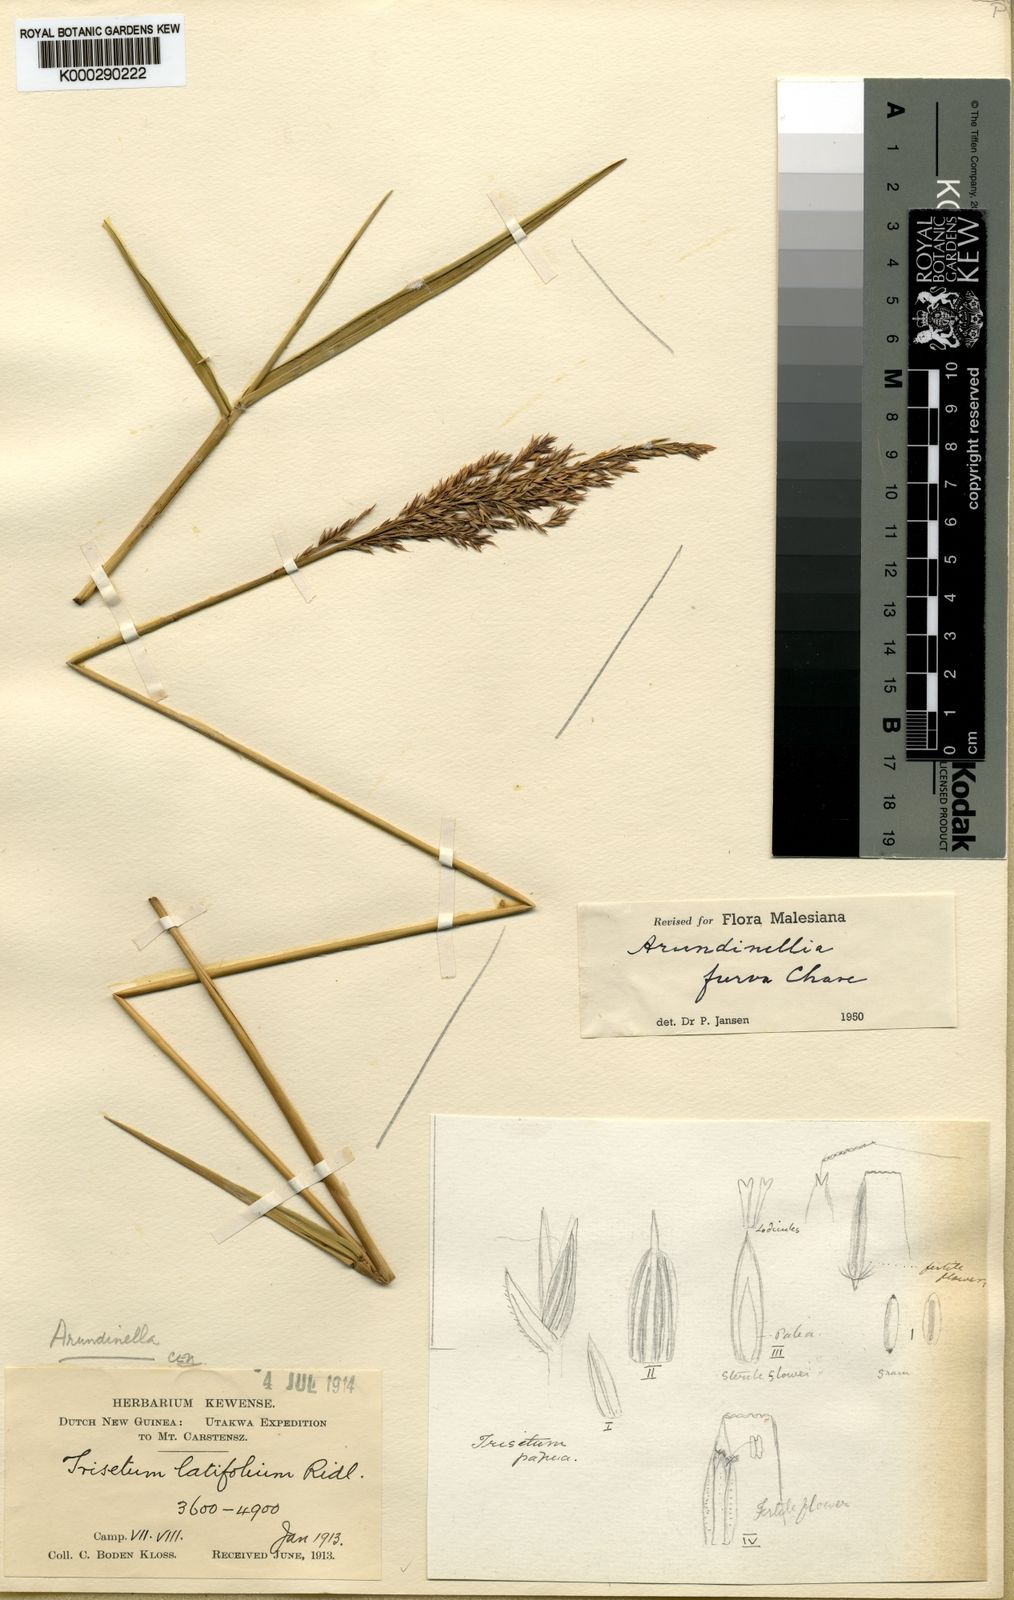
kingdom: Plantae
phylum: Tracheophyta
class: Liliopsida
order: Poales
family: Poaceae
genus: Arundinella
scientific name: Arundinella furva
